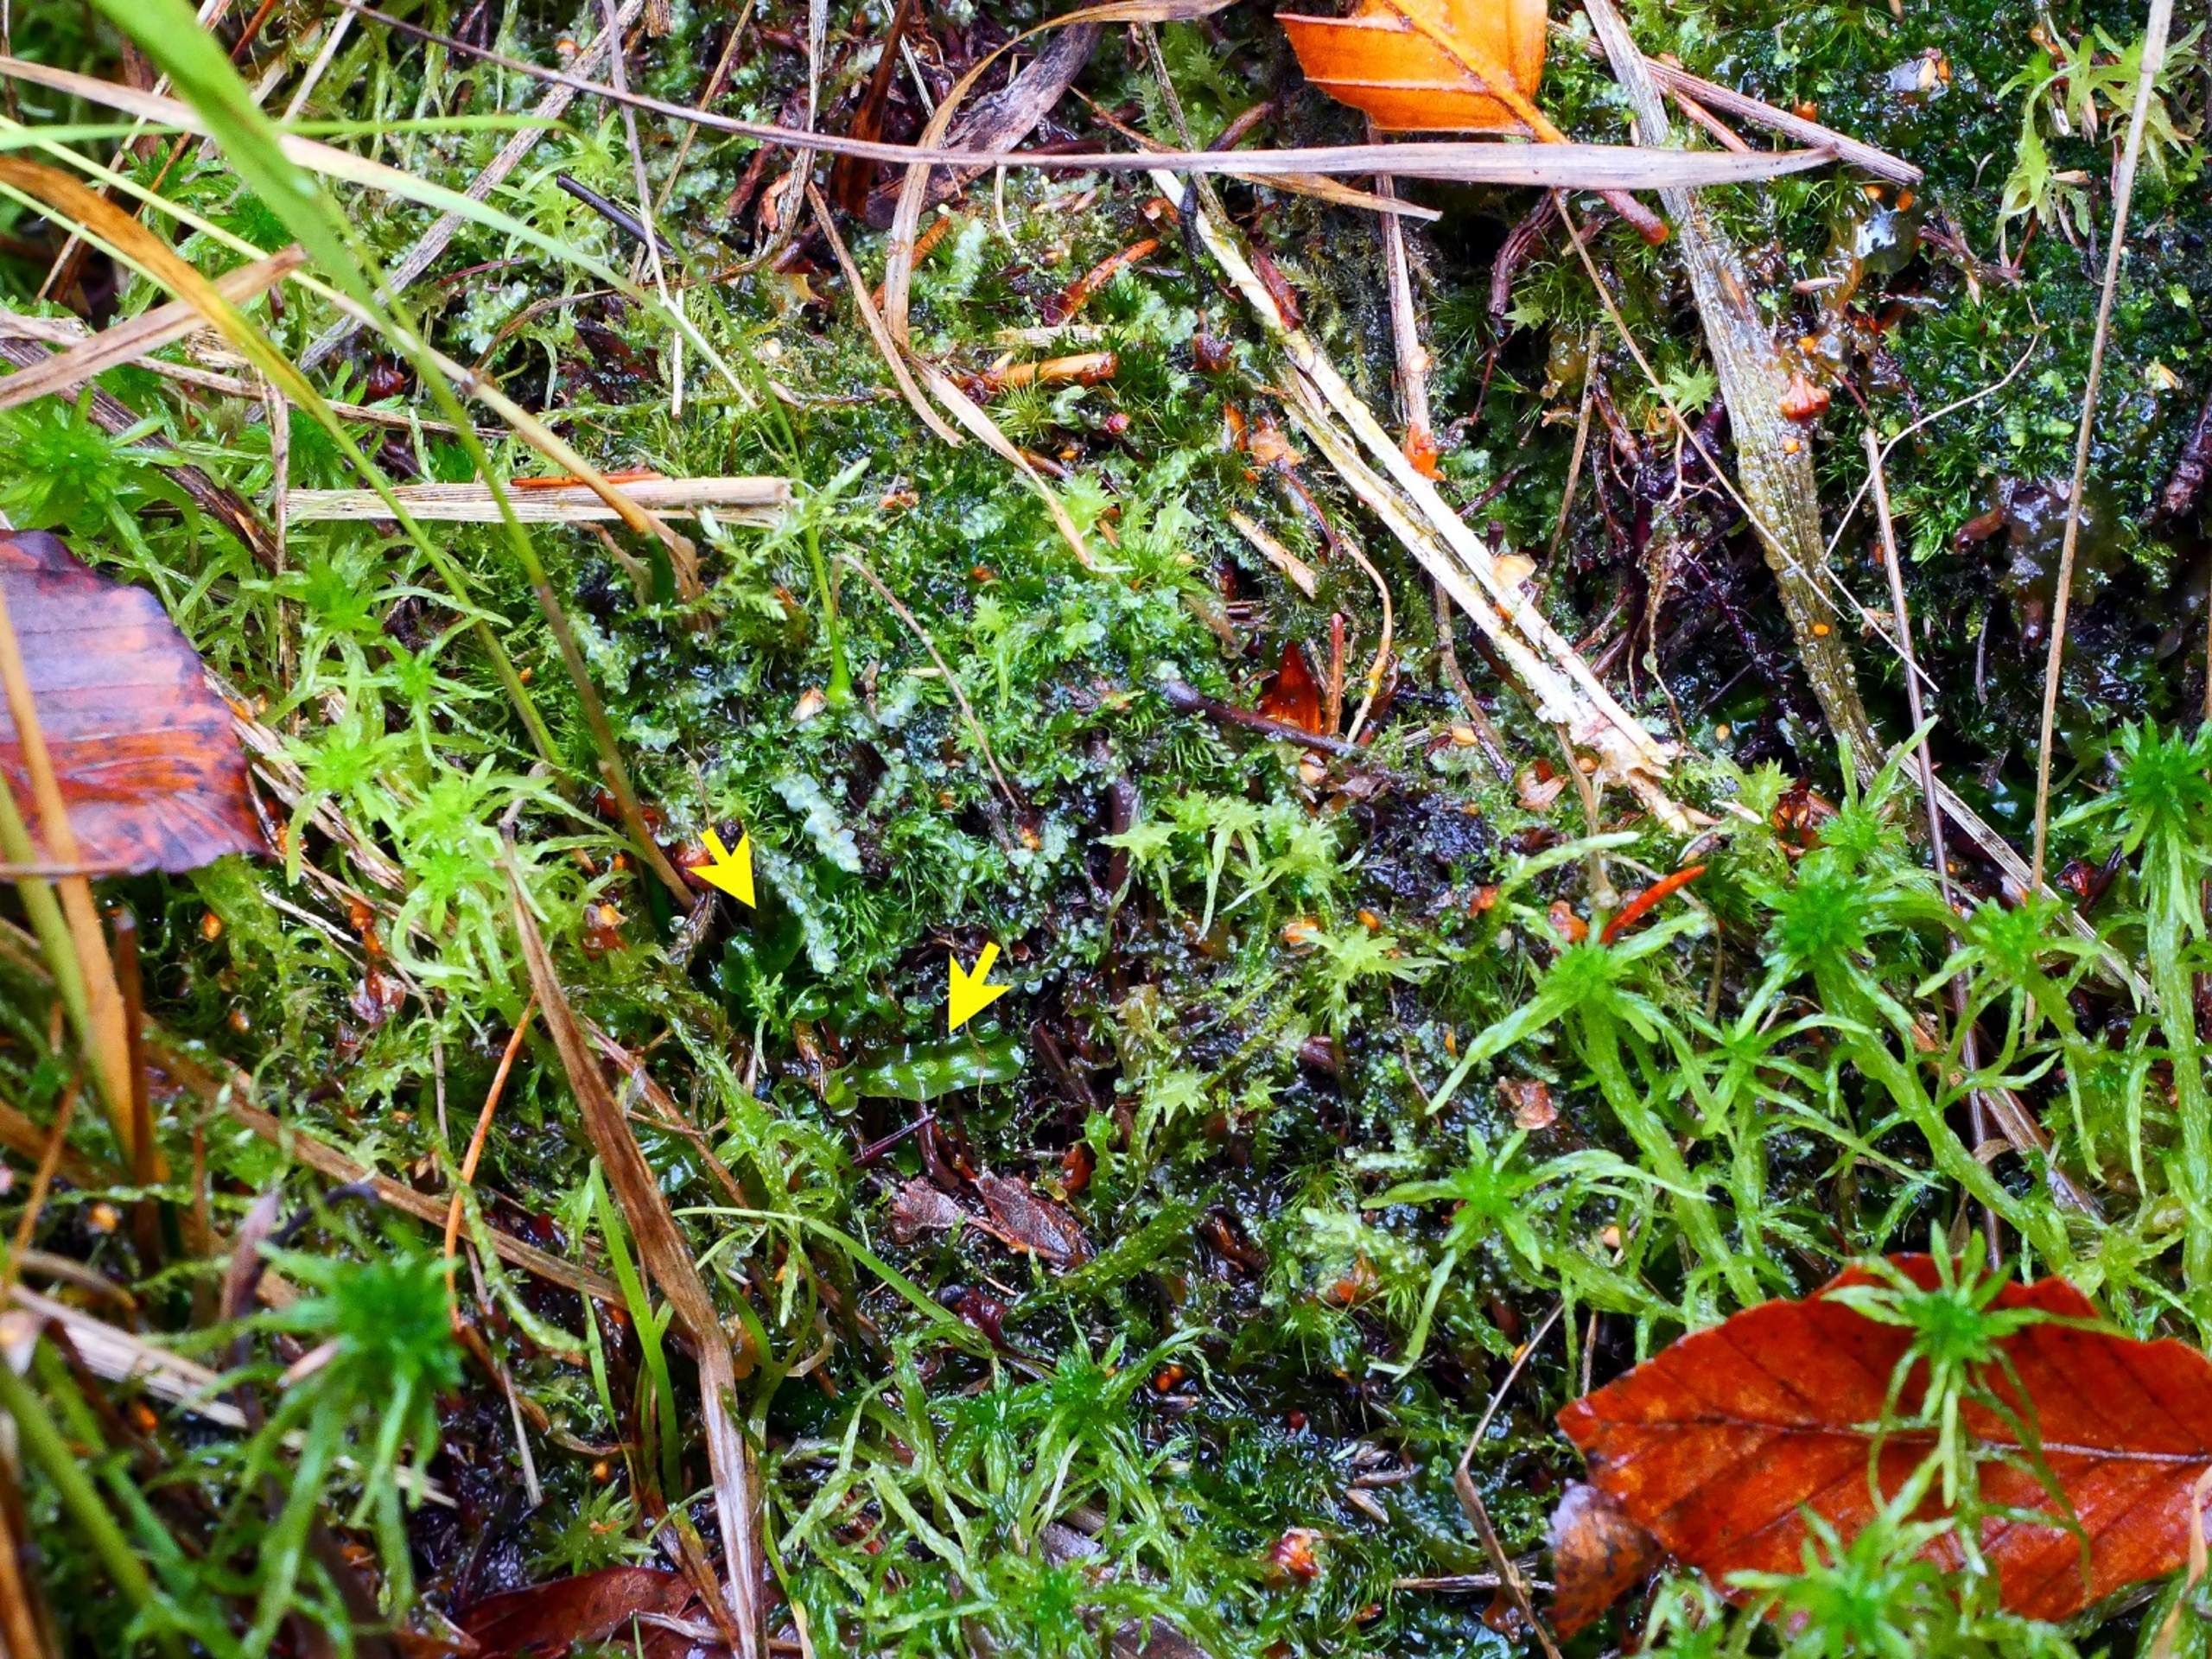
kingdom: Plantae
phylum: Marchantiophyta
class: Jungermanniopsida
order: Pallaviciniales
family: Pallaviciniaceae
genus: Pallavicinia
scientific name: Pallavicinia lyellii
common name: Almindelig strengløv
